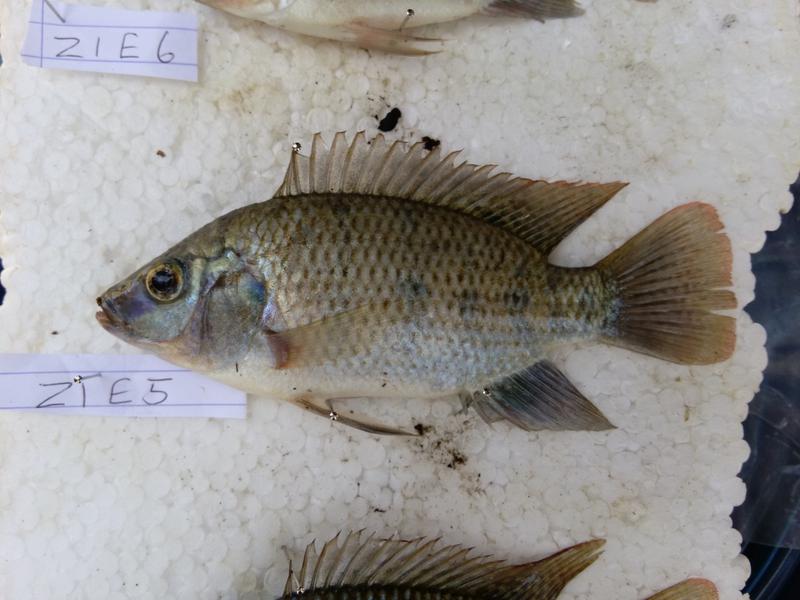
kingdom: Animalia
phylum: Chordata
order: Perciformes
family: Cichlidae
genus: Oreochromis
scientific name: Oreochromis urolepis
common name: Wami tilapia
